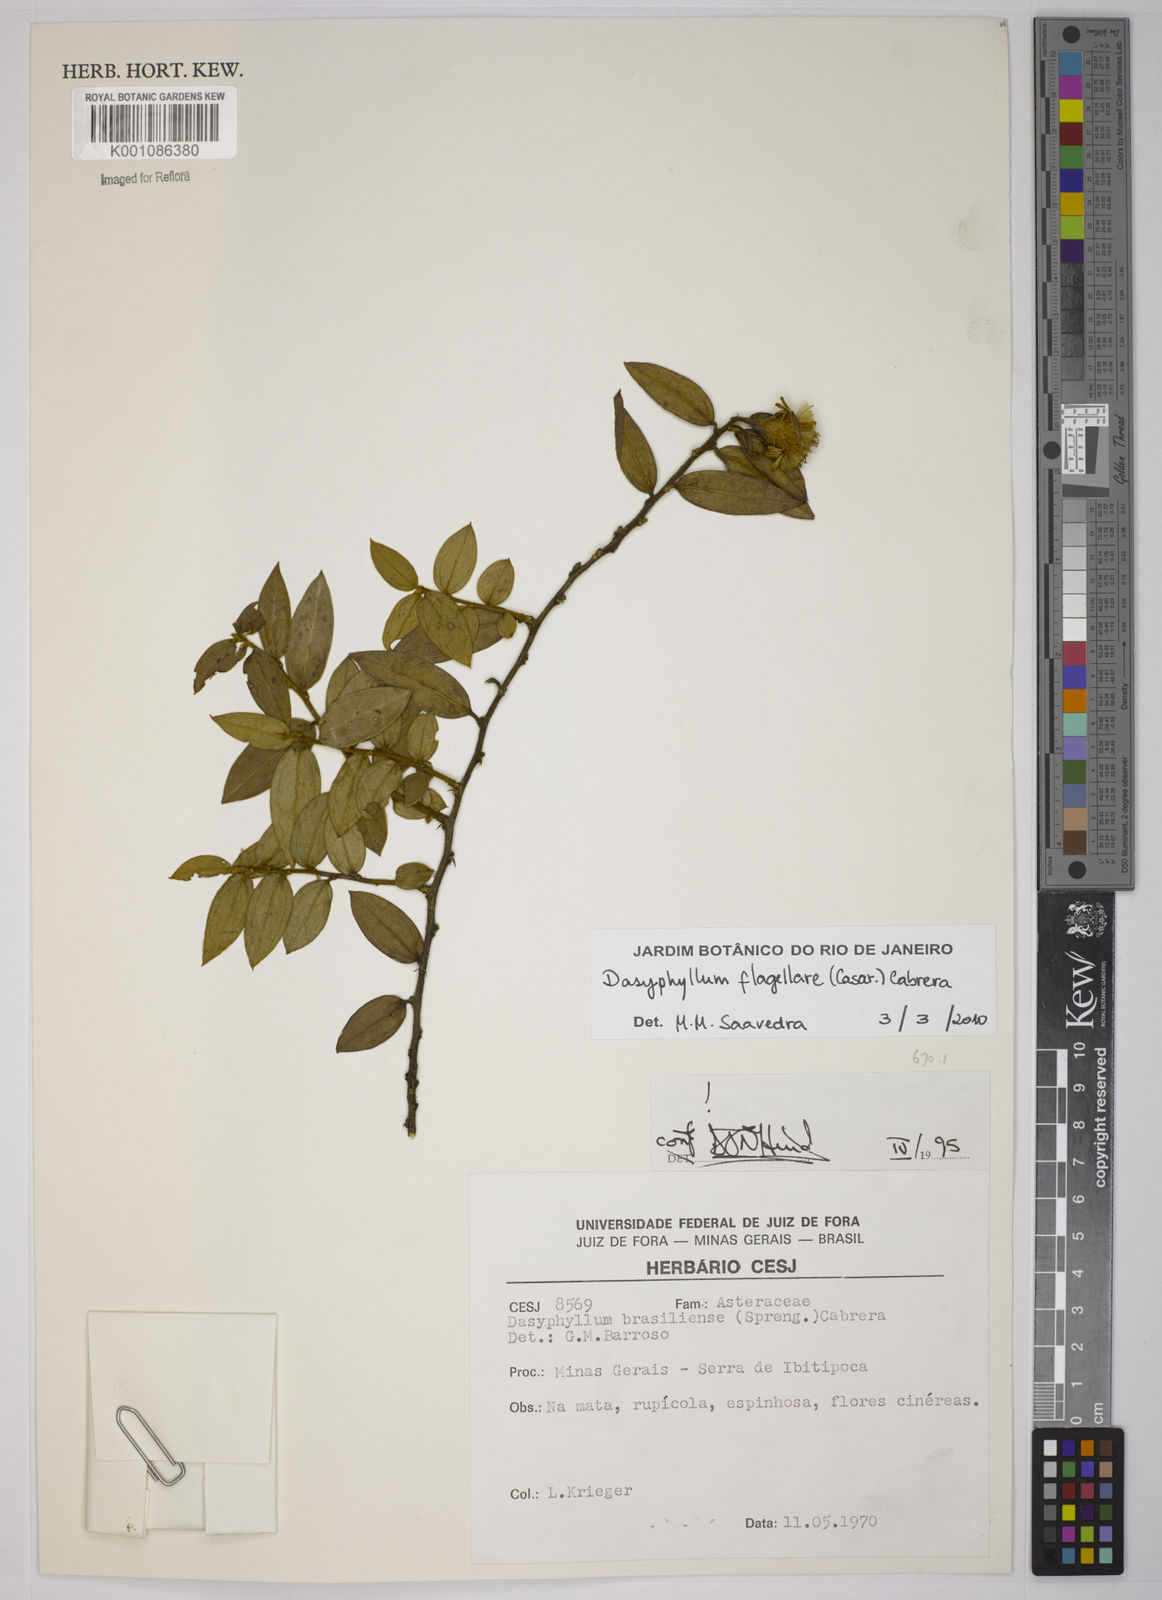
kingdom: Plantae
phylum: Tracheophyta
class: Magnoliopsida
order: Asterales
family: Asteraceae
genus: Dasyphyllum
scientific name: Dasyphyllum flagellare
